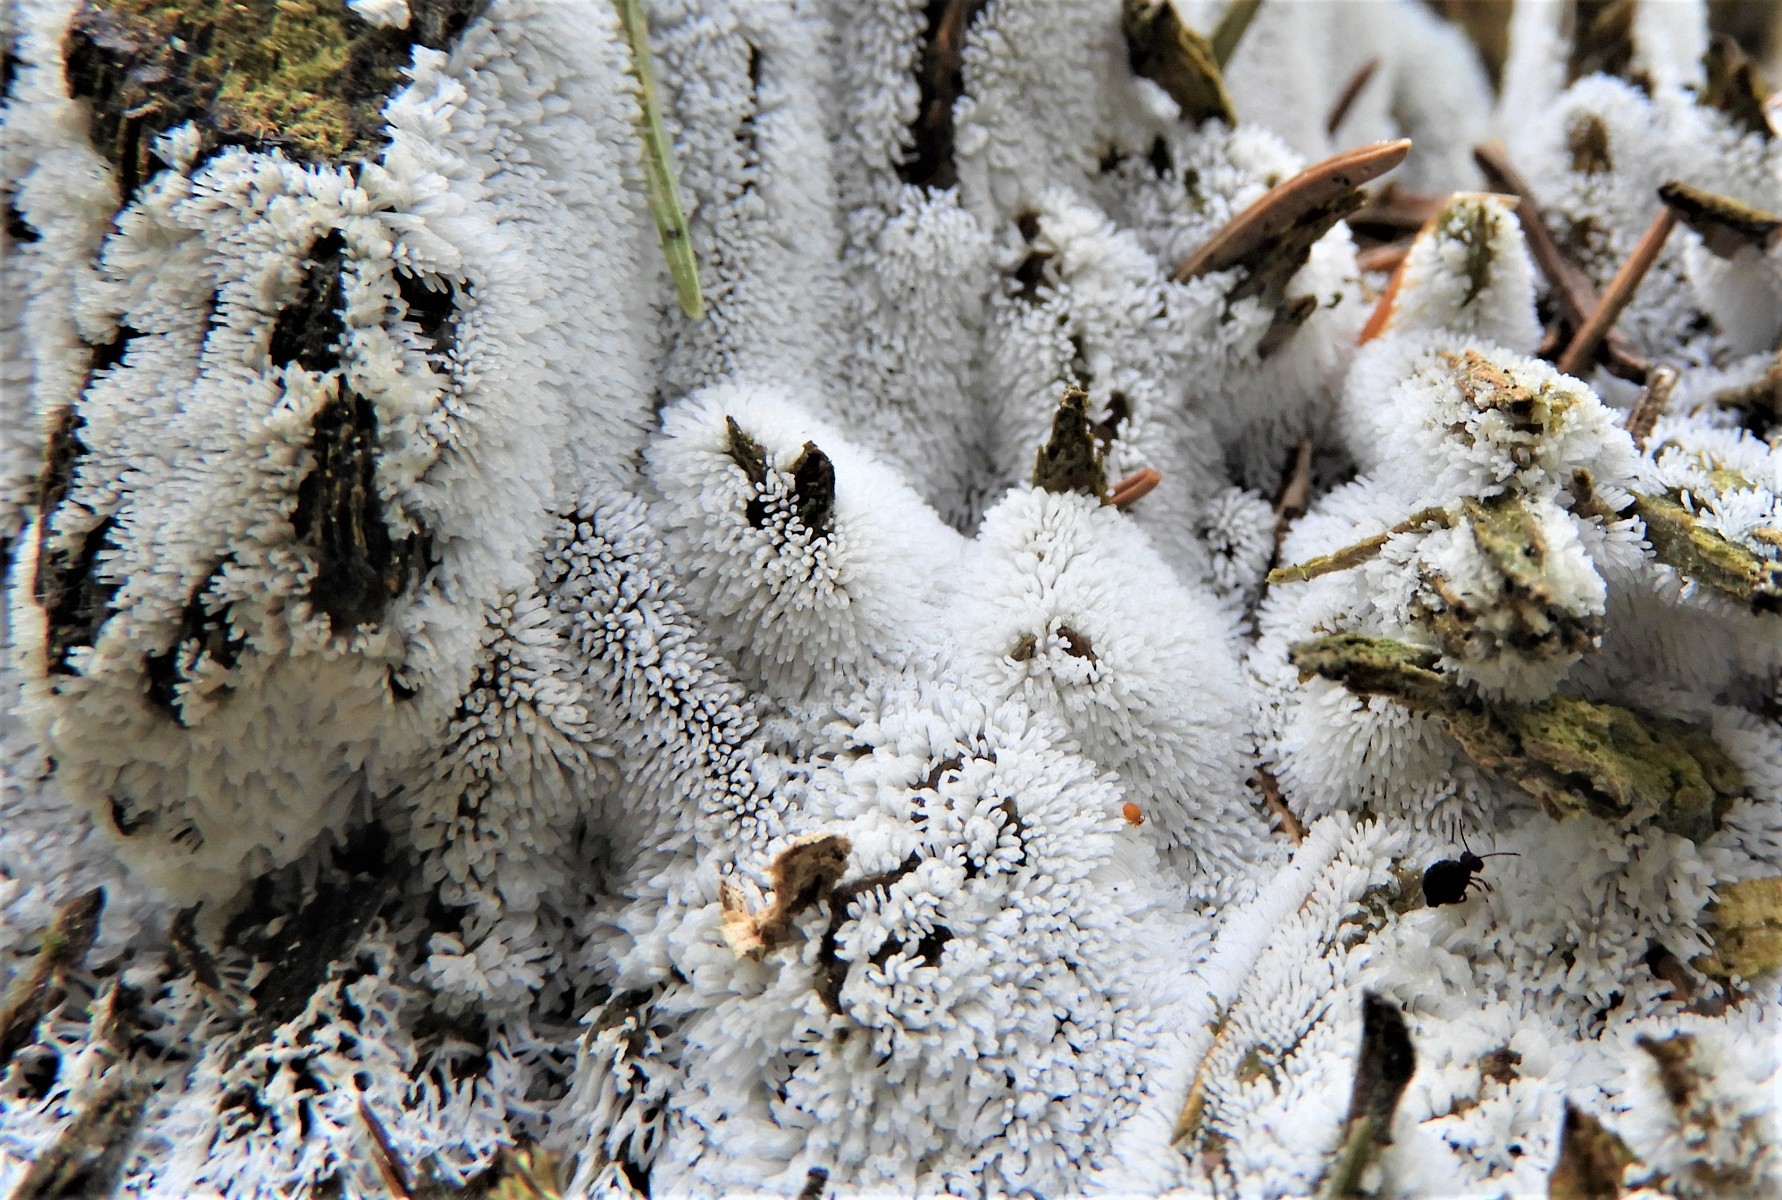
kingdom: Protozoa
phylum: Mycetozoa
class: Protosteliomycetes
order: Ceratiomyxales
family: Ceratiomyxaceae
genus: Ceratiomyxa
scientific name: Ceratiomyxa fruticulosa
